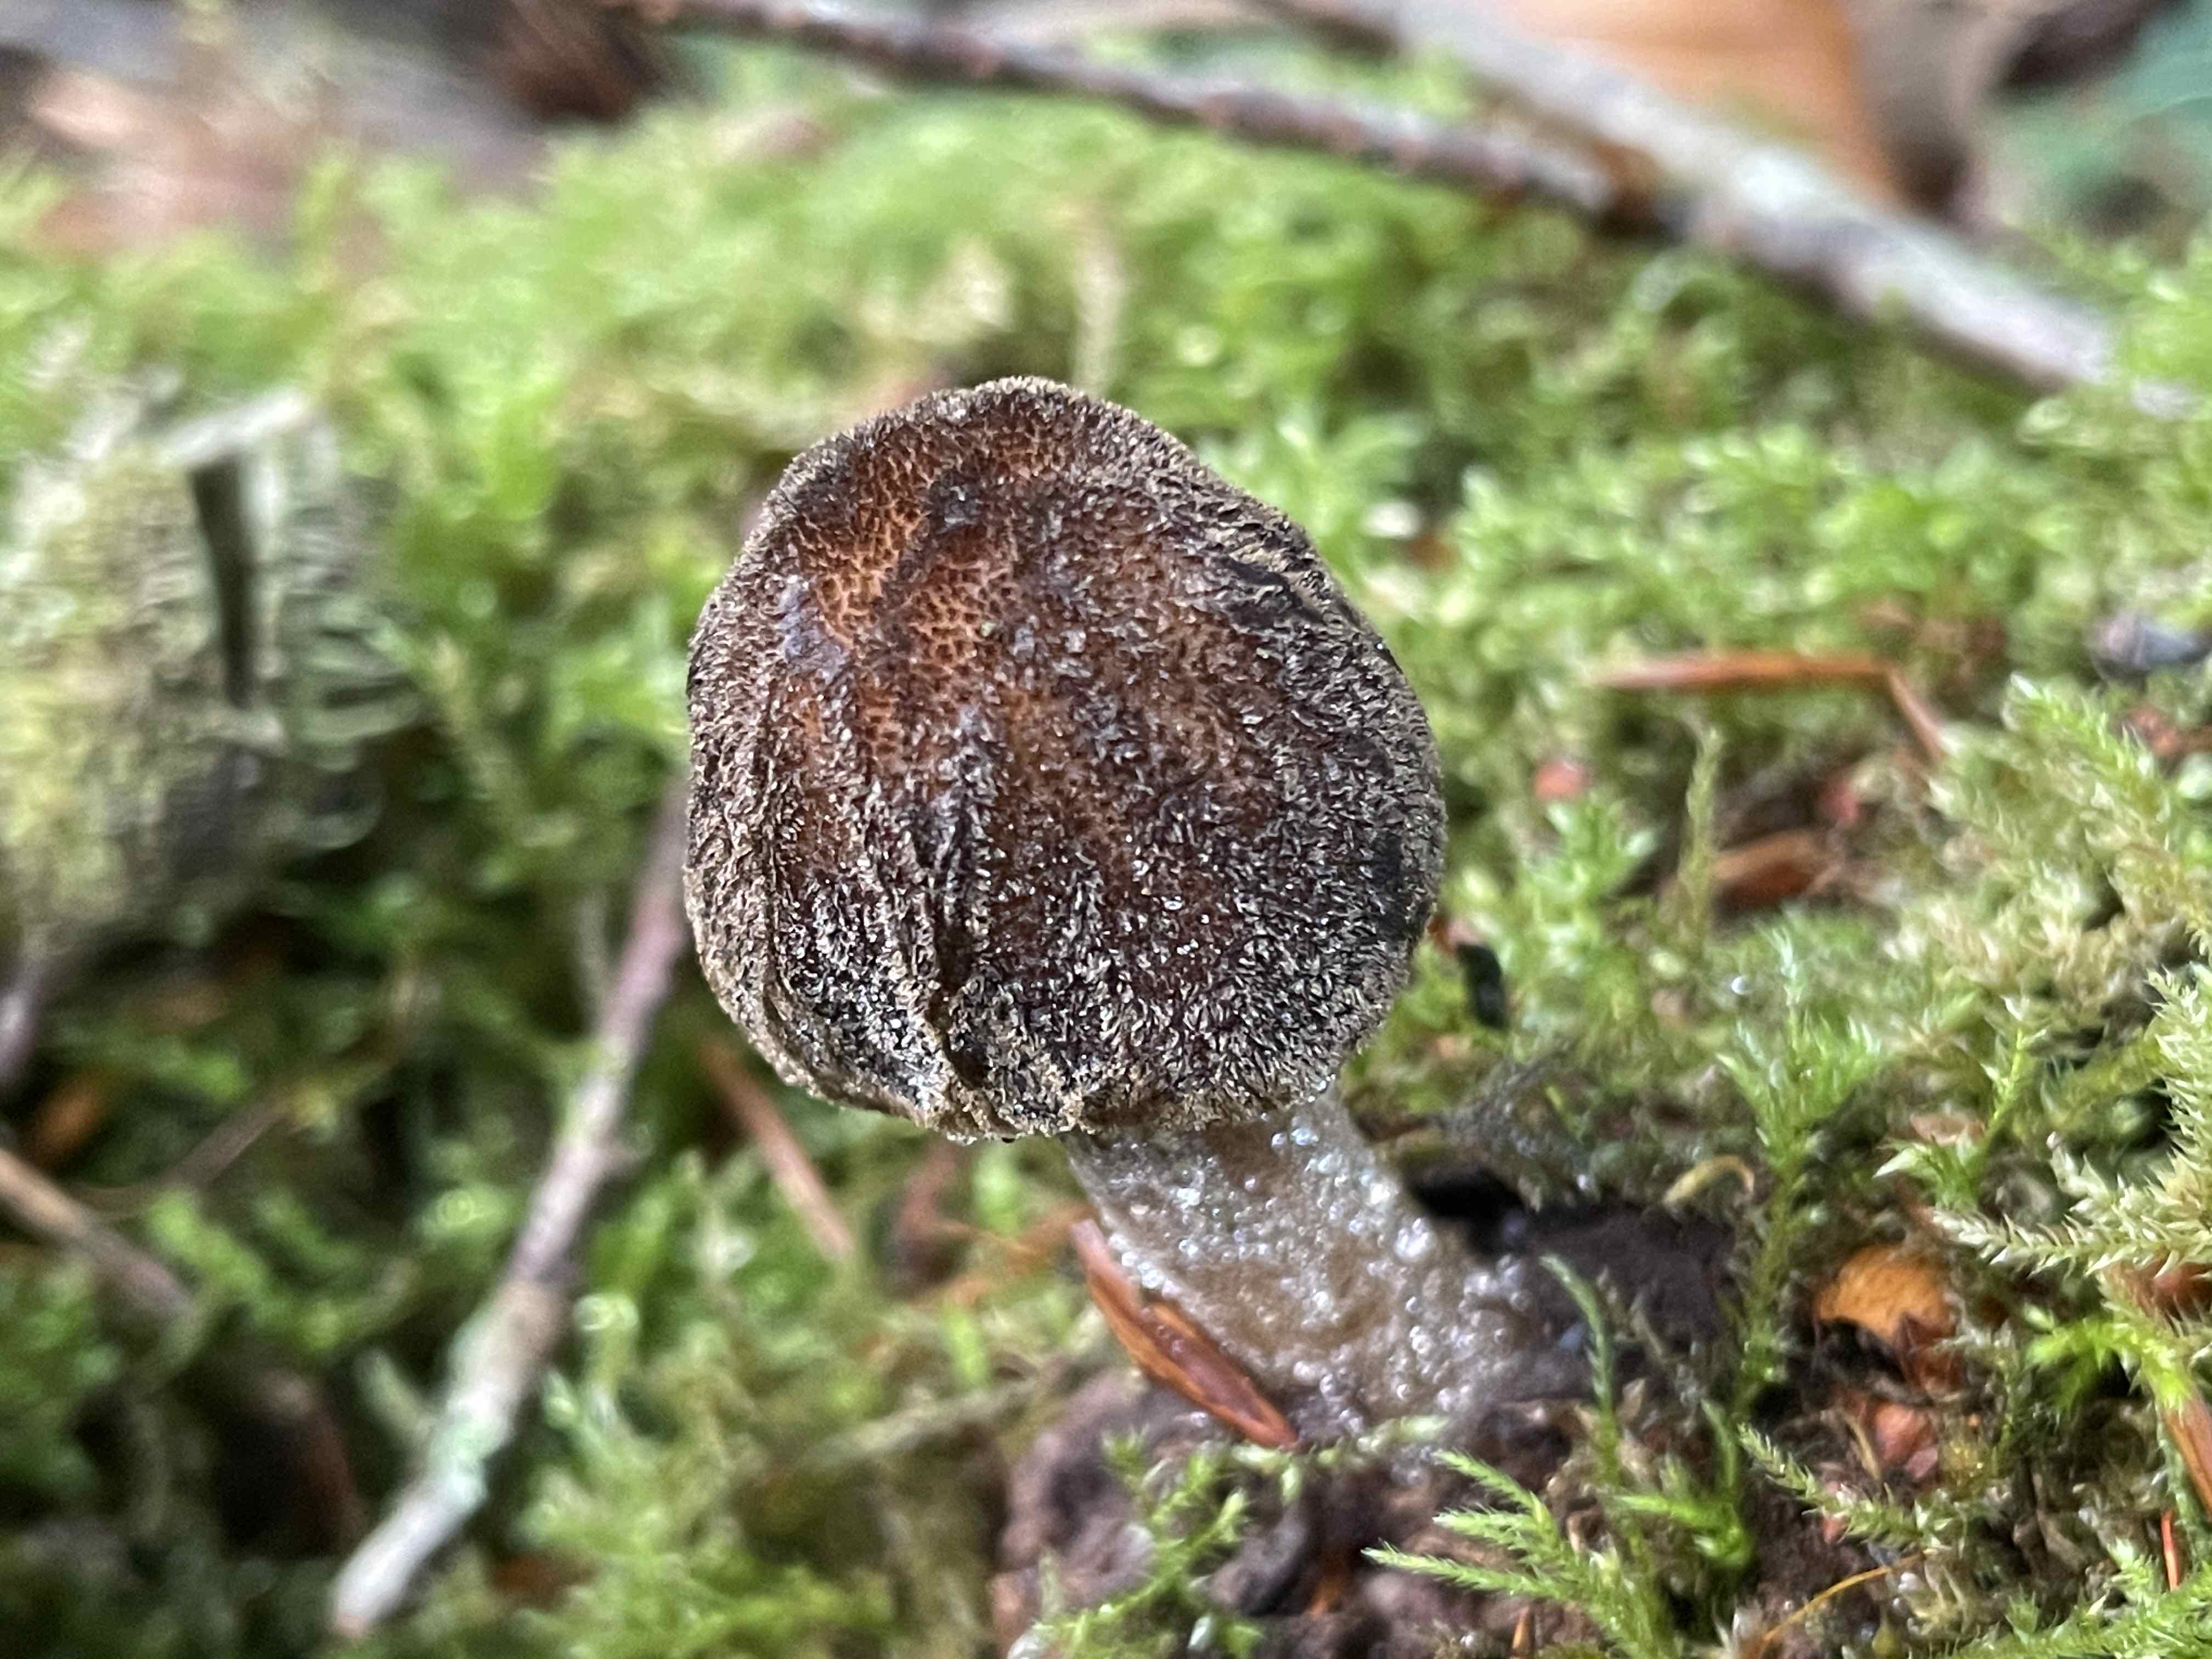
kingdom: Fungi
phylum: Basidiomycota
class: Agaricomycetes
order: Agaricales
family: Pluteaceae
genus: Pluteus
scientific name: Pluteus umbrosus
